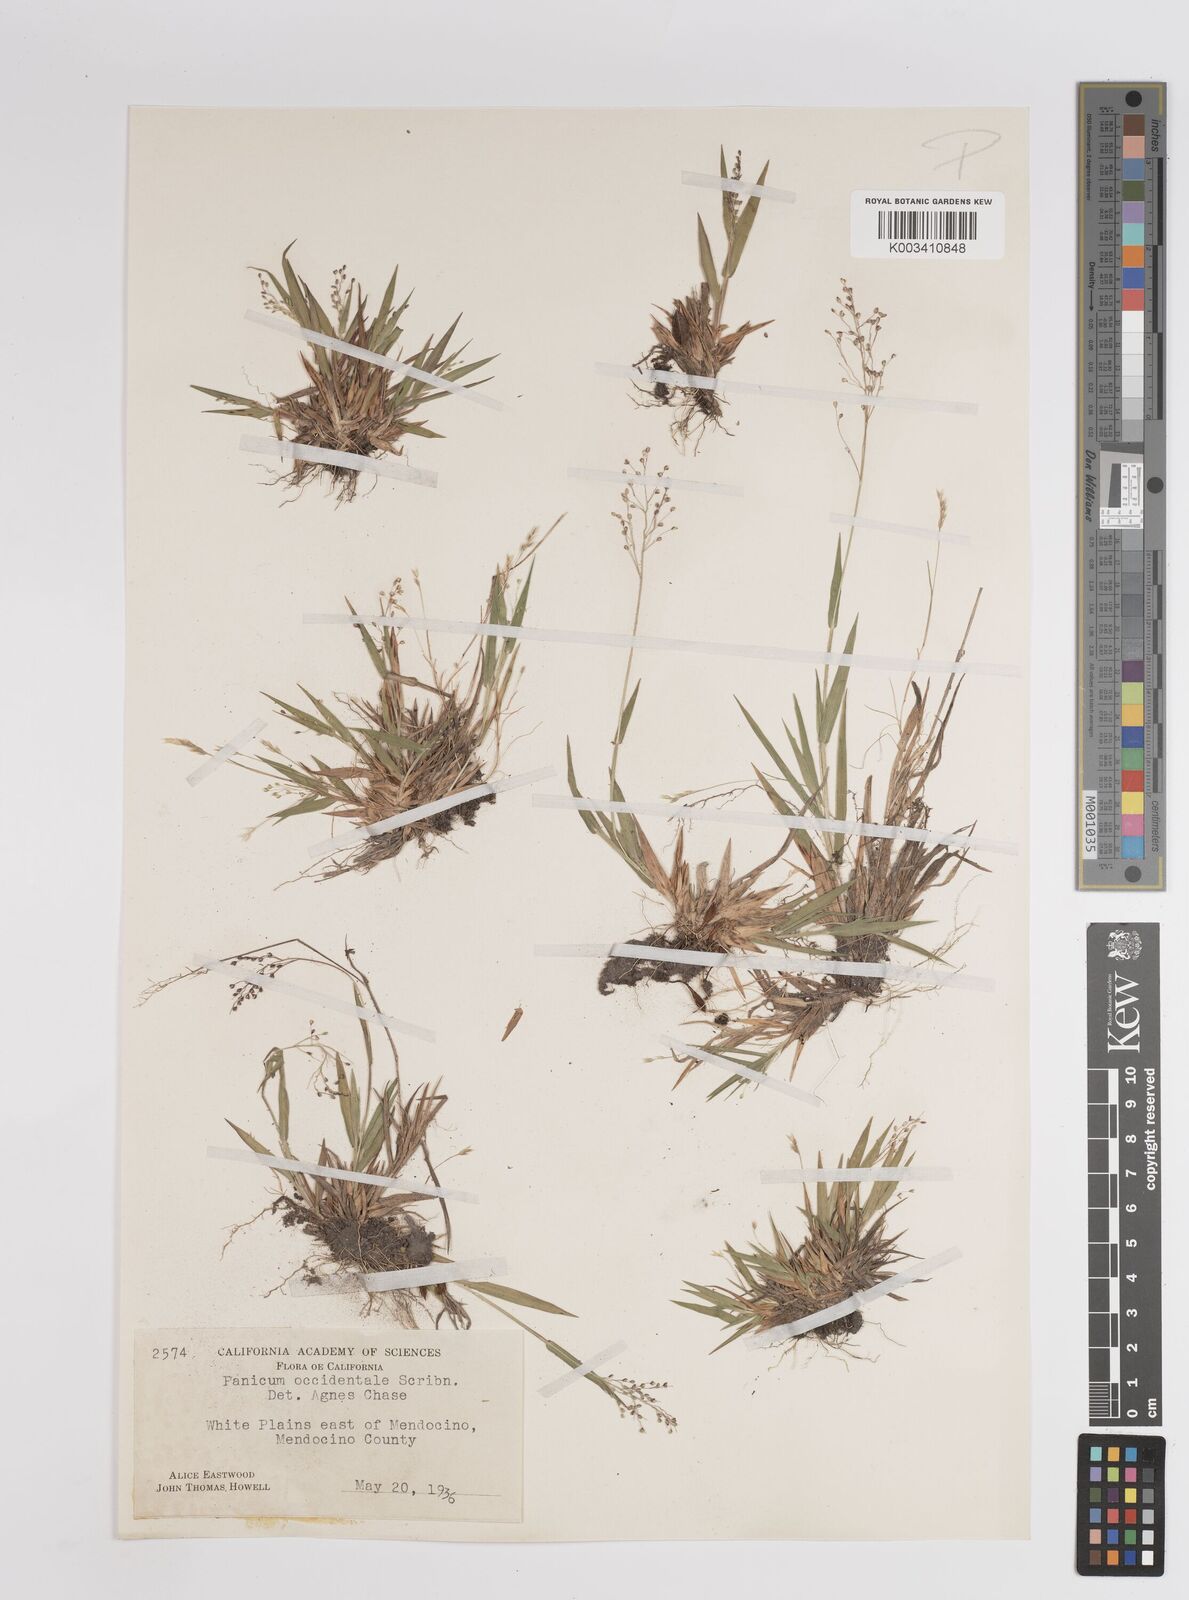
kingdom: Plantae
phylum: Tracheophyta
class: Liliopsida
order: Poales
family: Poaceae
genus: Dichanthelium
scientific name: Dichanthelium implicatum
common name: Slender-stemmed panicgrass
